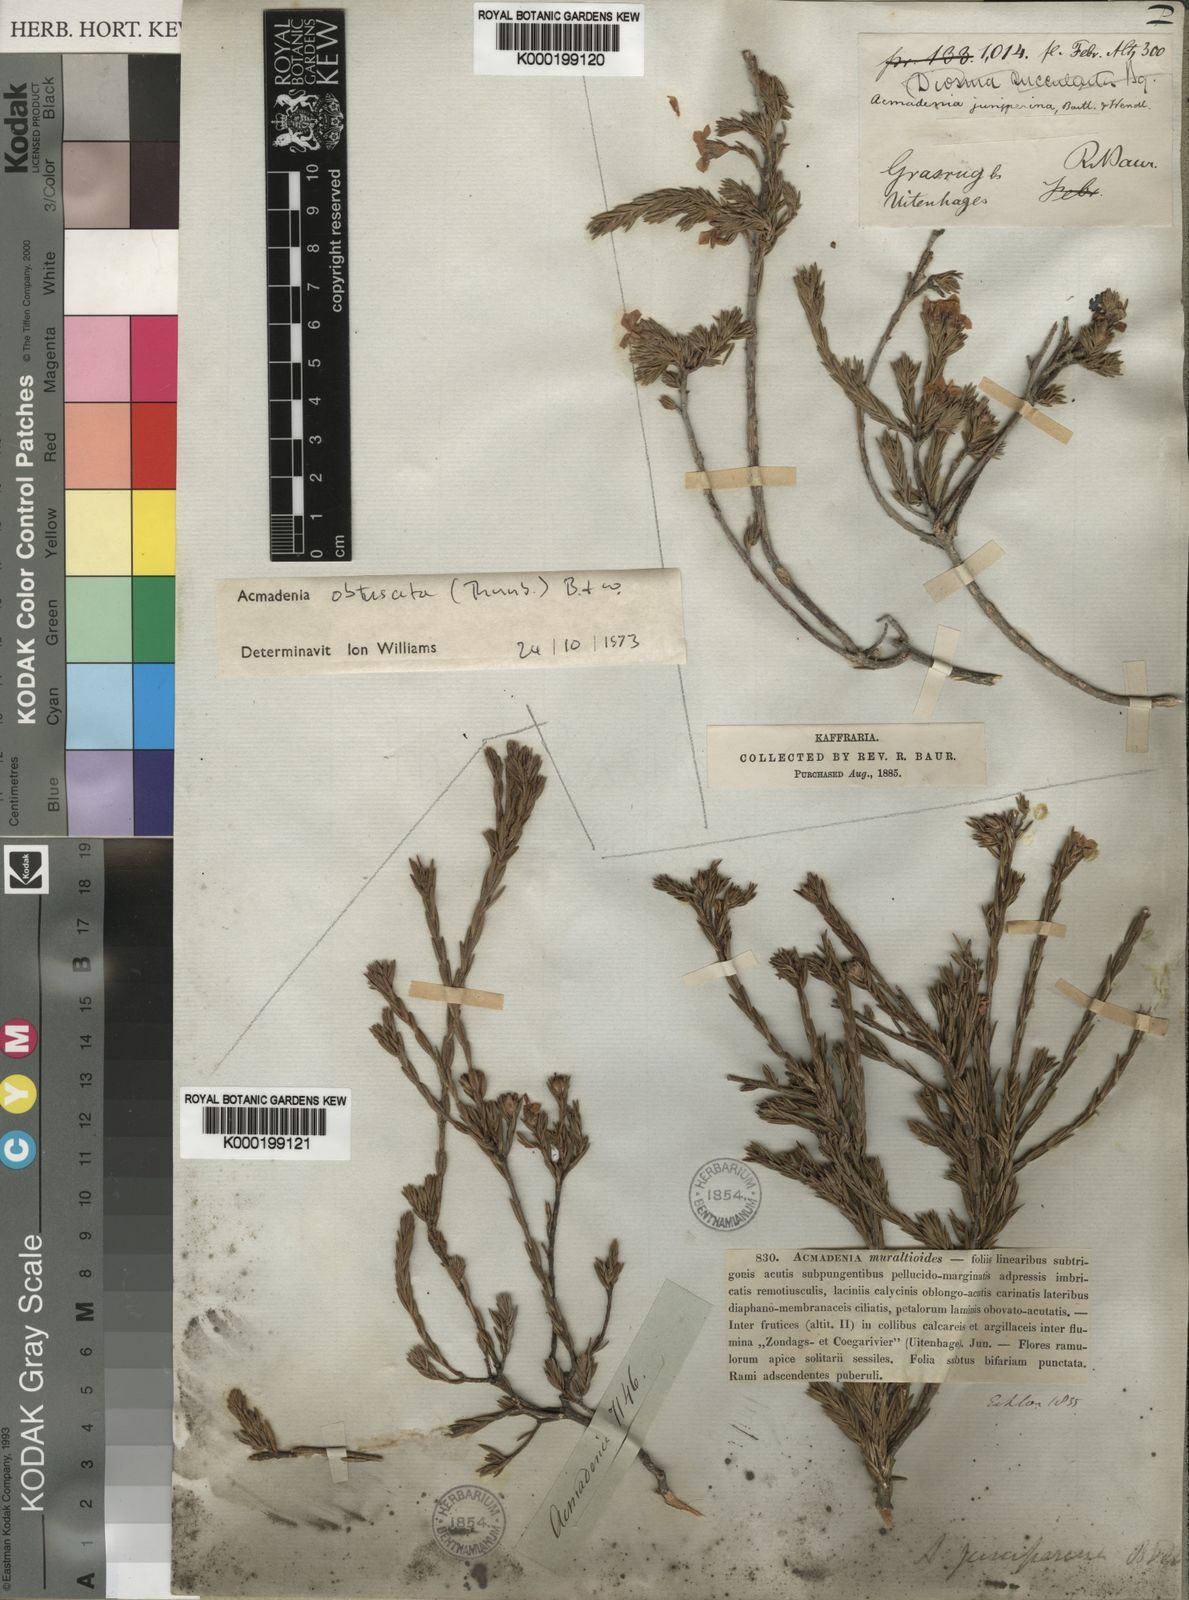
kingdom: Plantae
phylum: Tracheophyta
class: Magnoliopsida
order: Sapindales
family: Rutaceae
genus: Acmadenia
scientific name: Acmadenia obtusata
